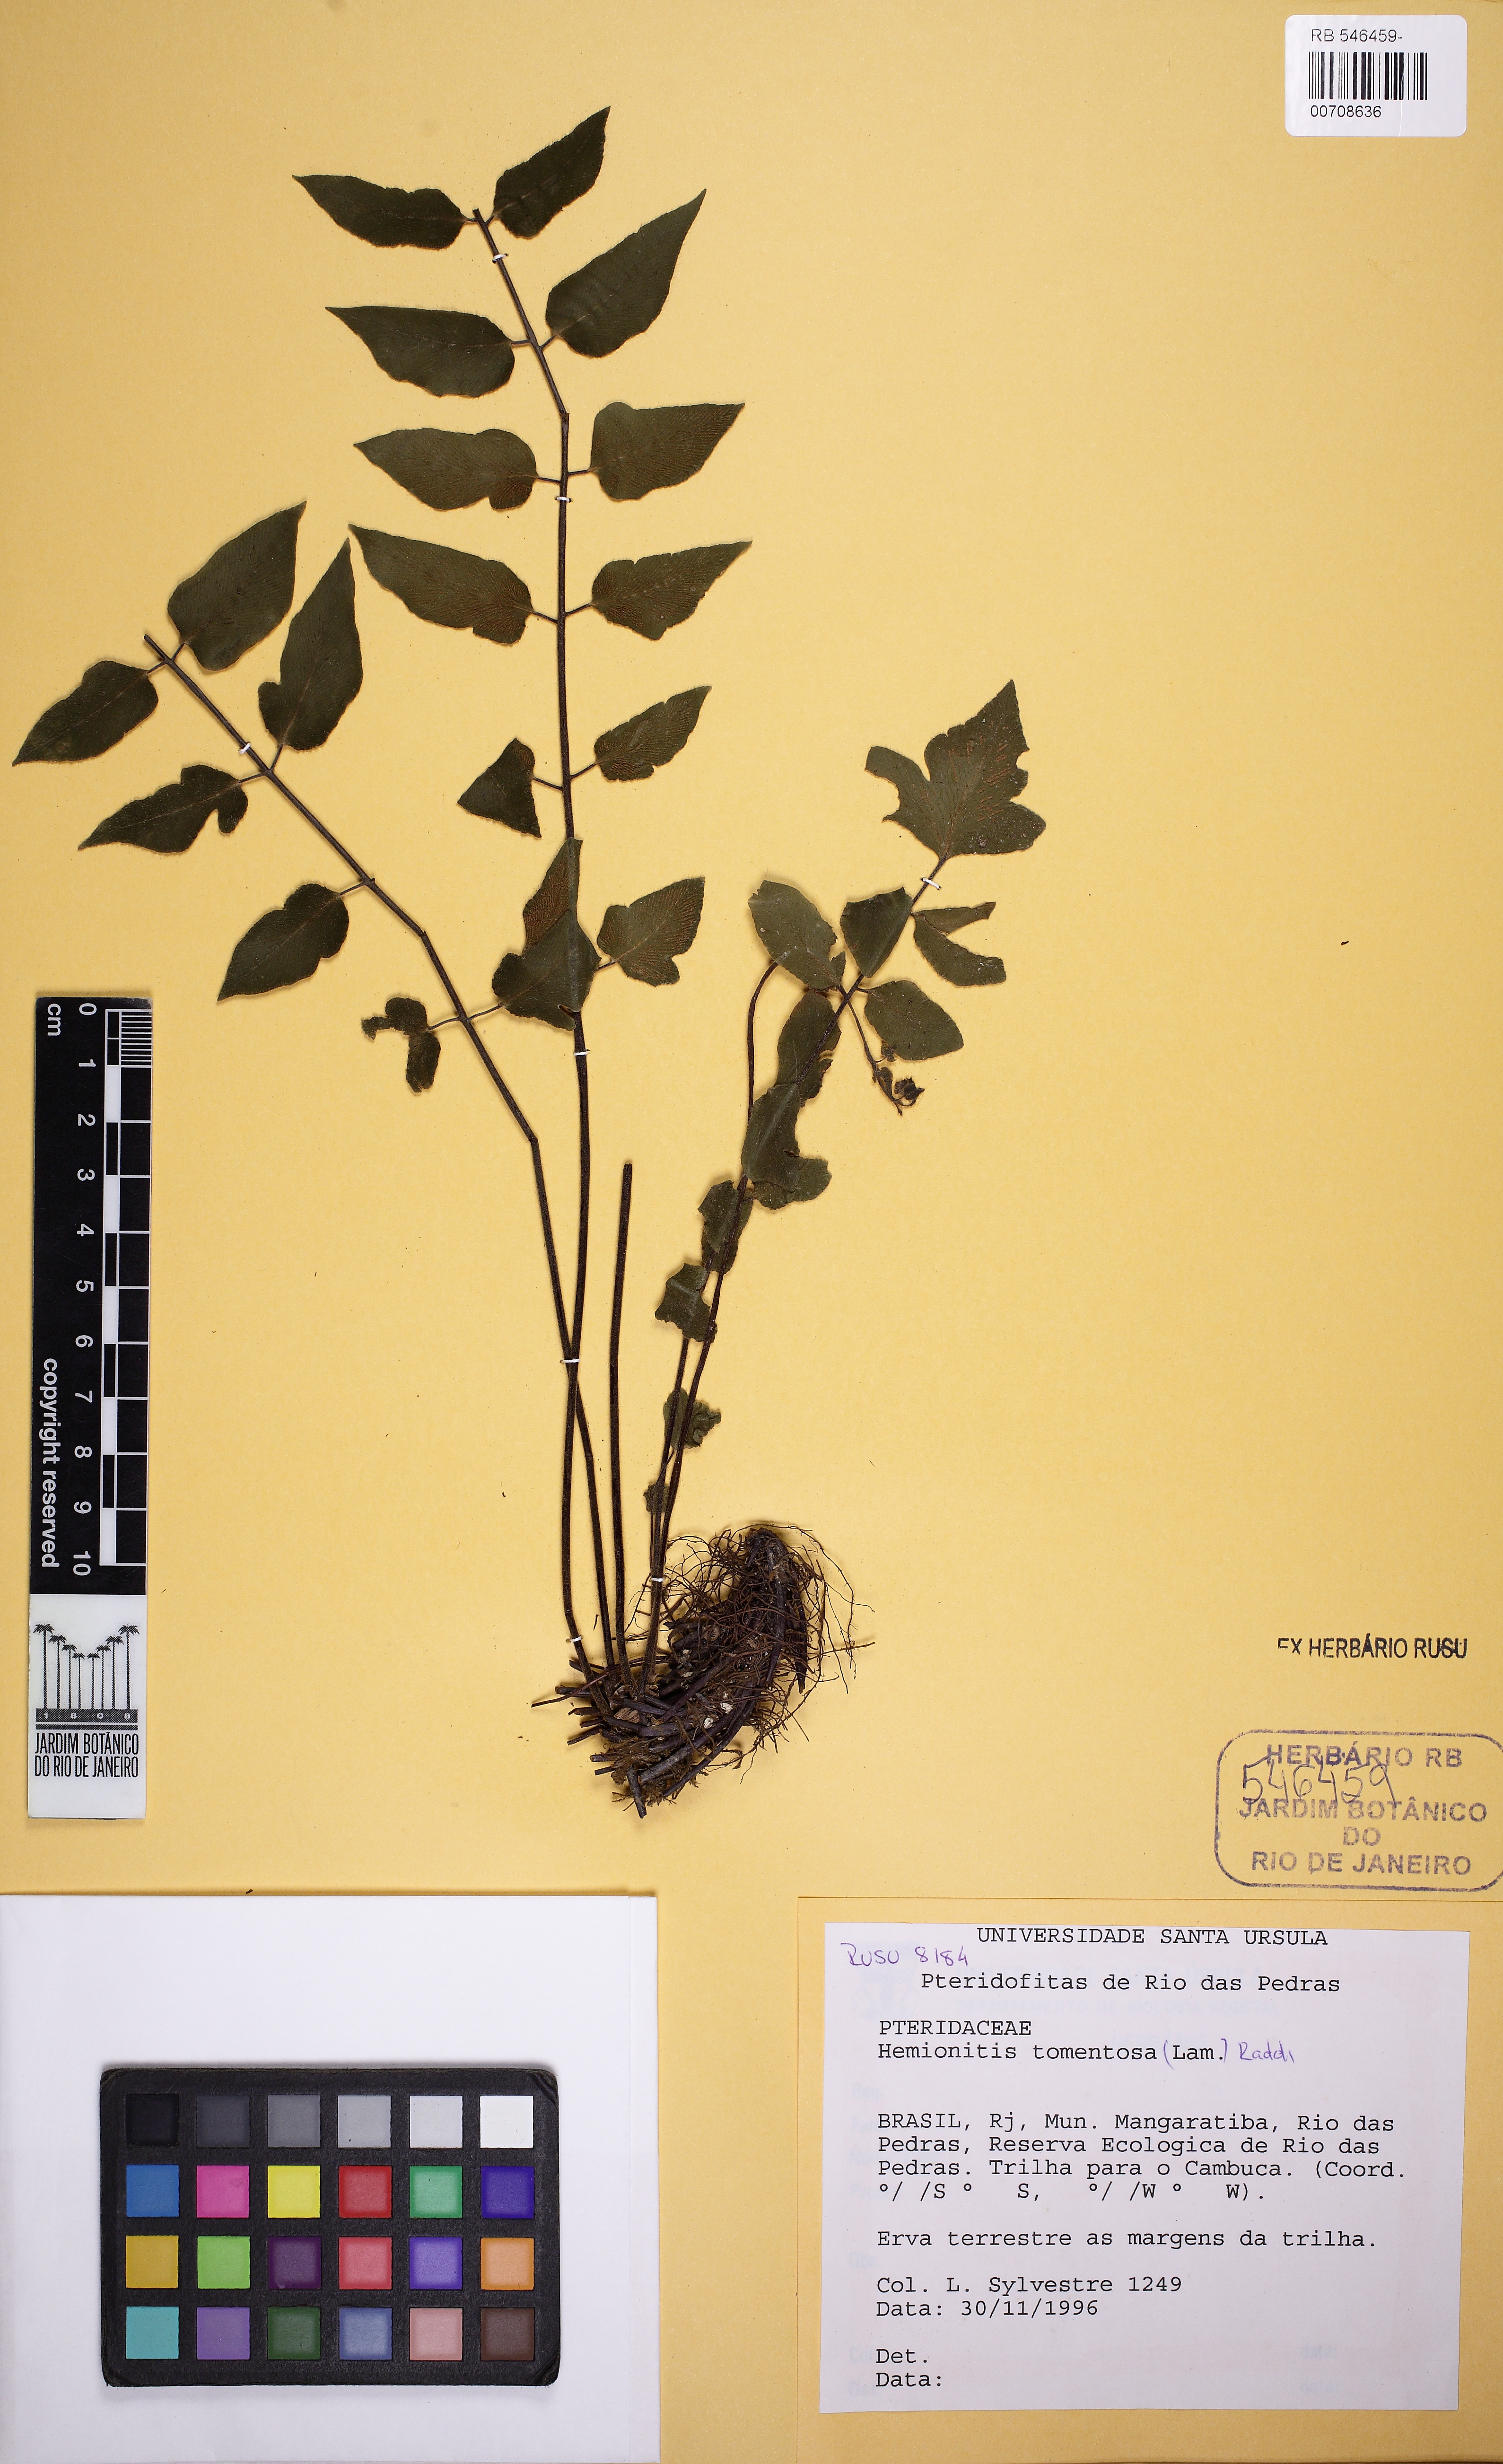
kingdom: Plantae
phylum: Tracheophyta
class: Polypodiopsida
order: Polypodiales
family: Pteridaceae
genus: Hemionitis
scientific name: Hemionitis tomentosa
